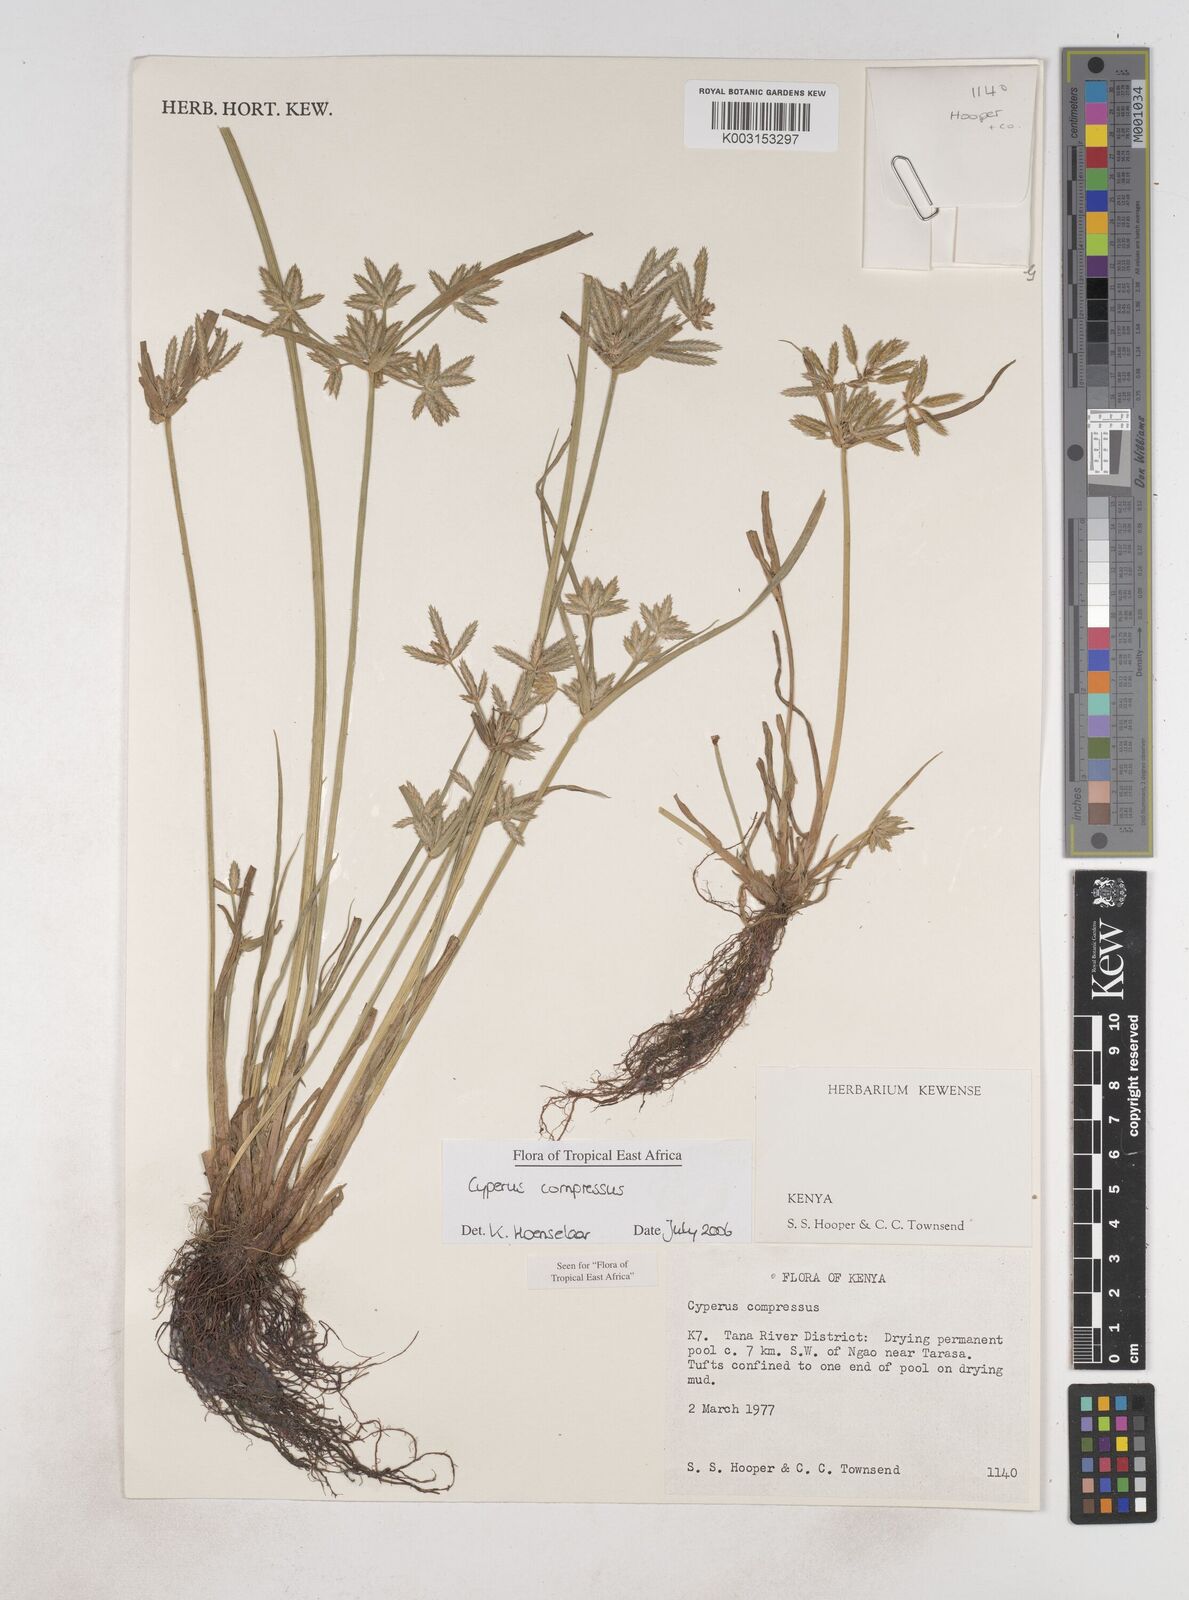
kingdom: Plantae
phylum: Tracheophyta
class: Liliopsida
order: Poales
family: Cyperaceae
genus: Cyperus
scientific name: Cyperus compressus
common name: Poorland flatsedge
